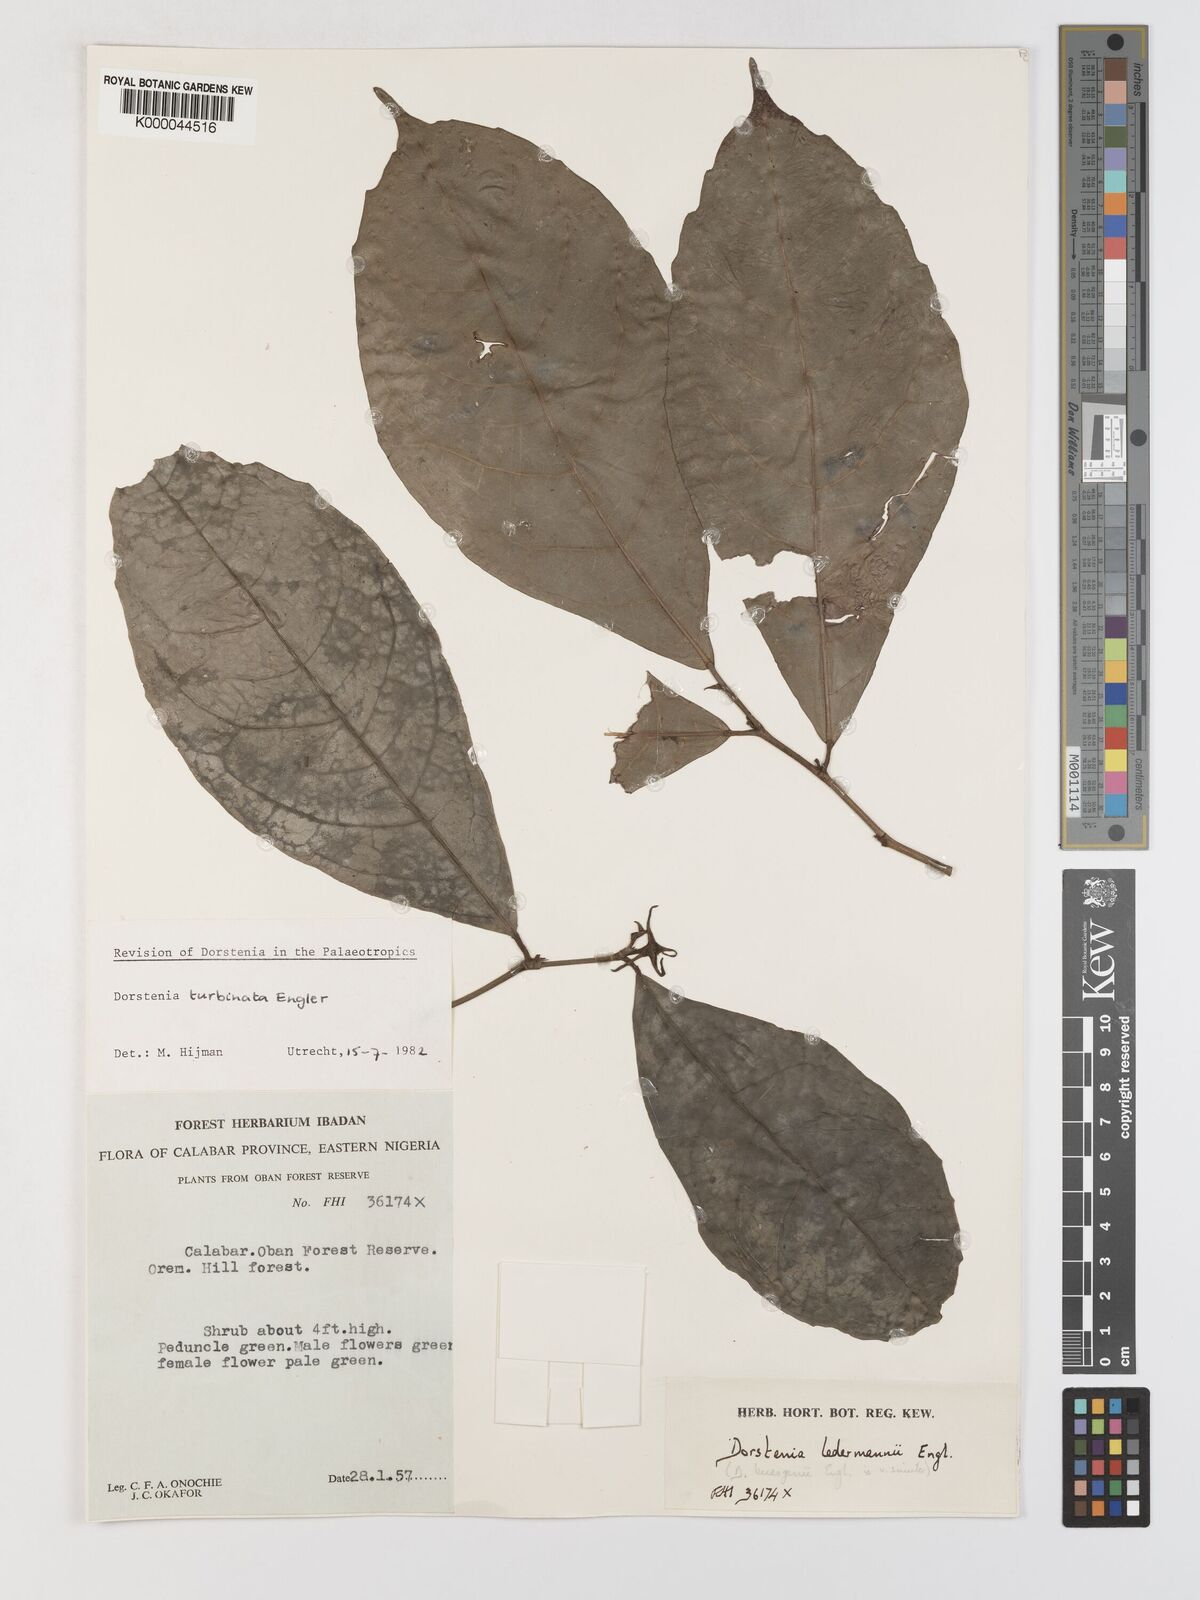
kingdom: Plantae
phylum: Tracheophyta
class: Magnoliopsida
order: Rosales
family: Moraceae
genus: Hijmania
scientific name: Hijmania turbinata
